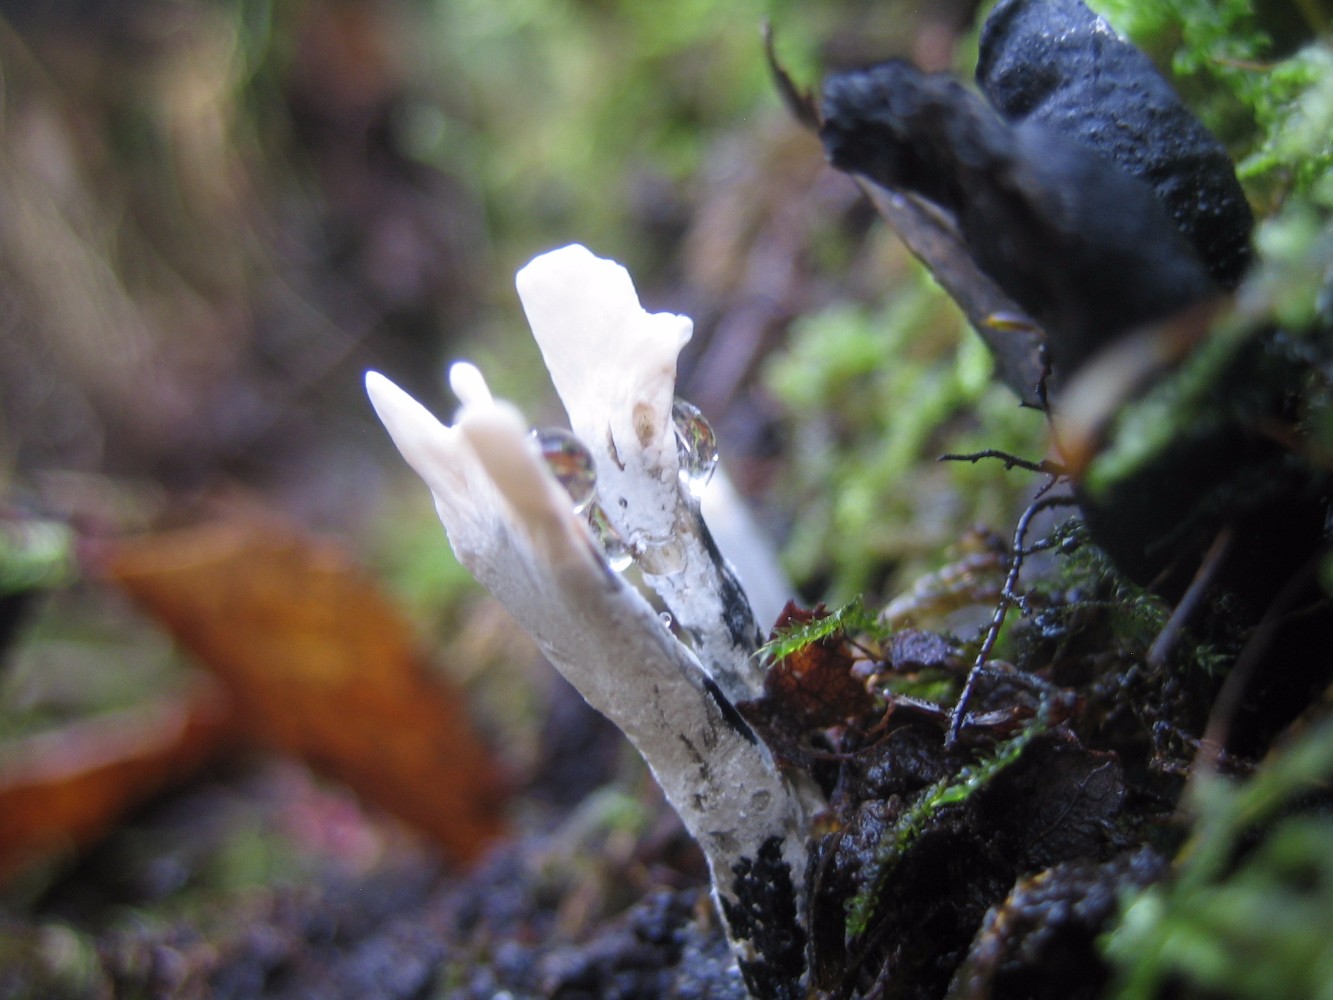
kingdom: Fungi
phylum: Ascomycota
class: Sordariomycetes
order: Xylariales
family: Xylariaceae
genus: Xylaria
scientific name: Xylaria hypoxylon
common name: grenet stødsvamp
